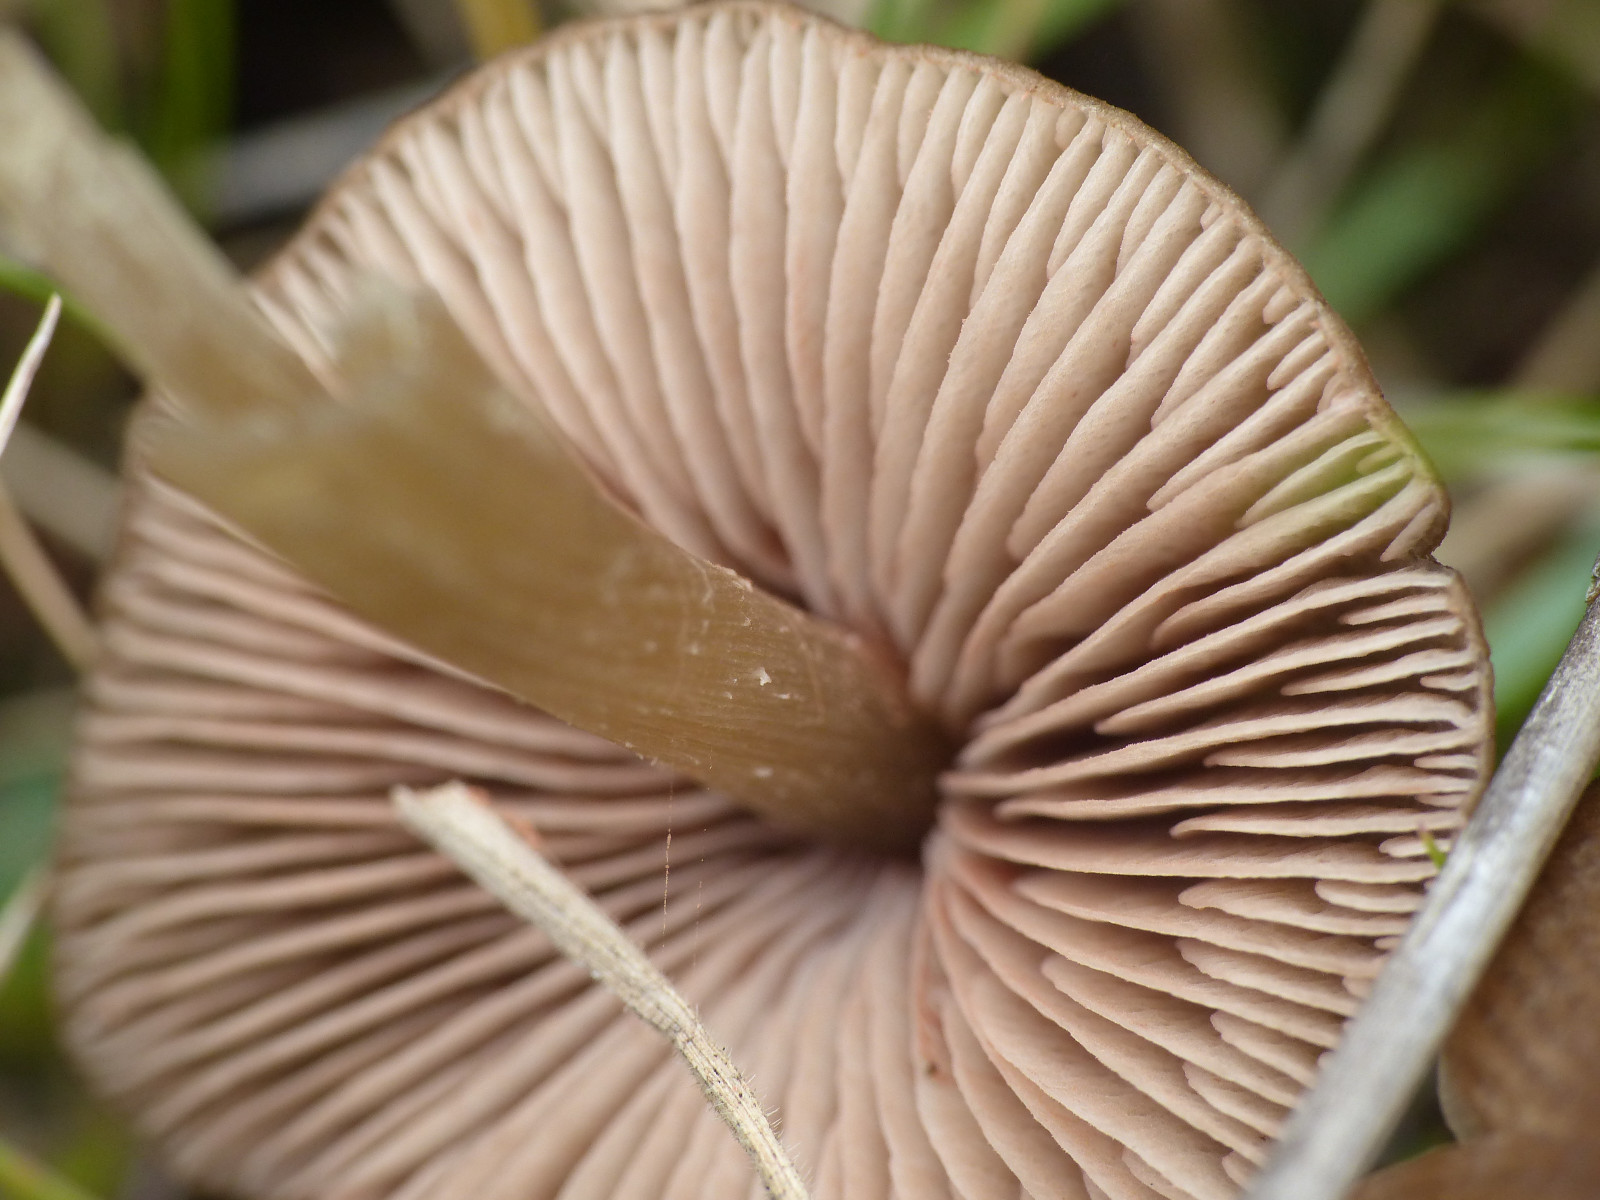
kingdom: Fungi
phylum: Basidiomycota
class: Agaricomycetes
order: Agaricales
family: Entolomataceae
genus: Entoloma
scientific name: Entoloma
